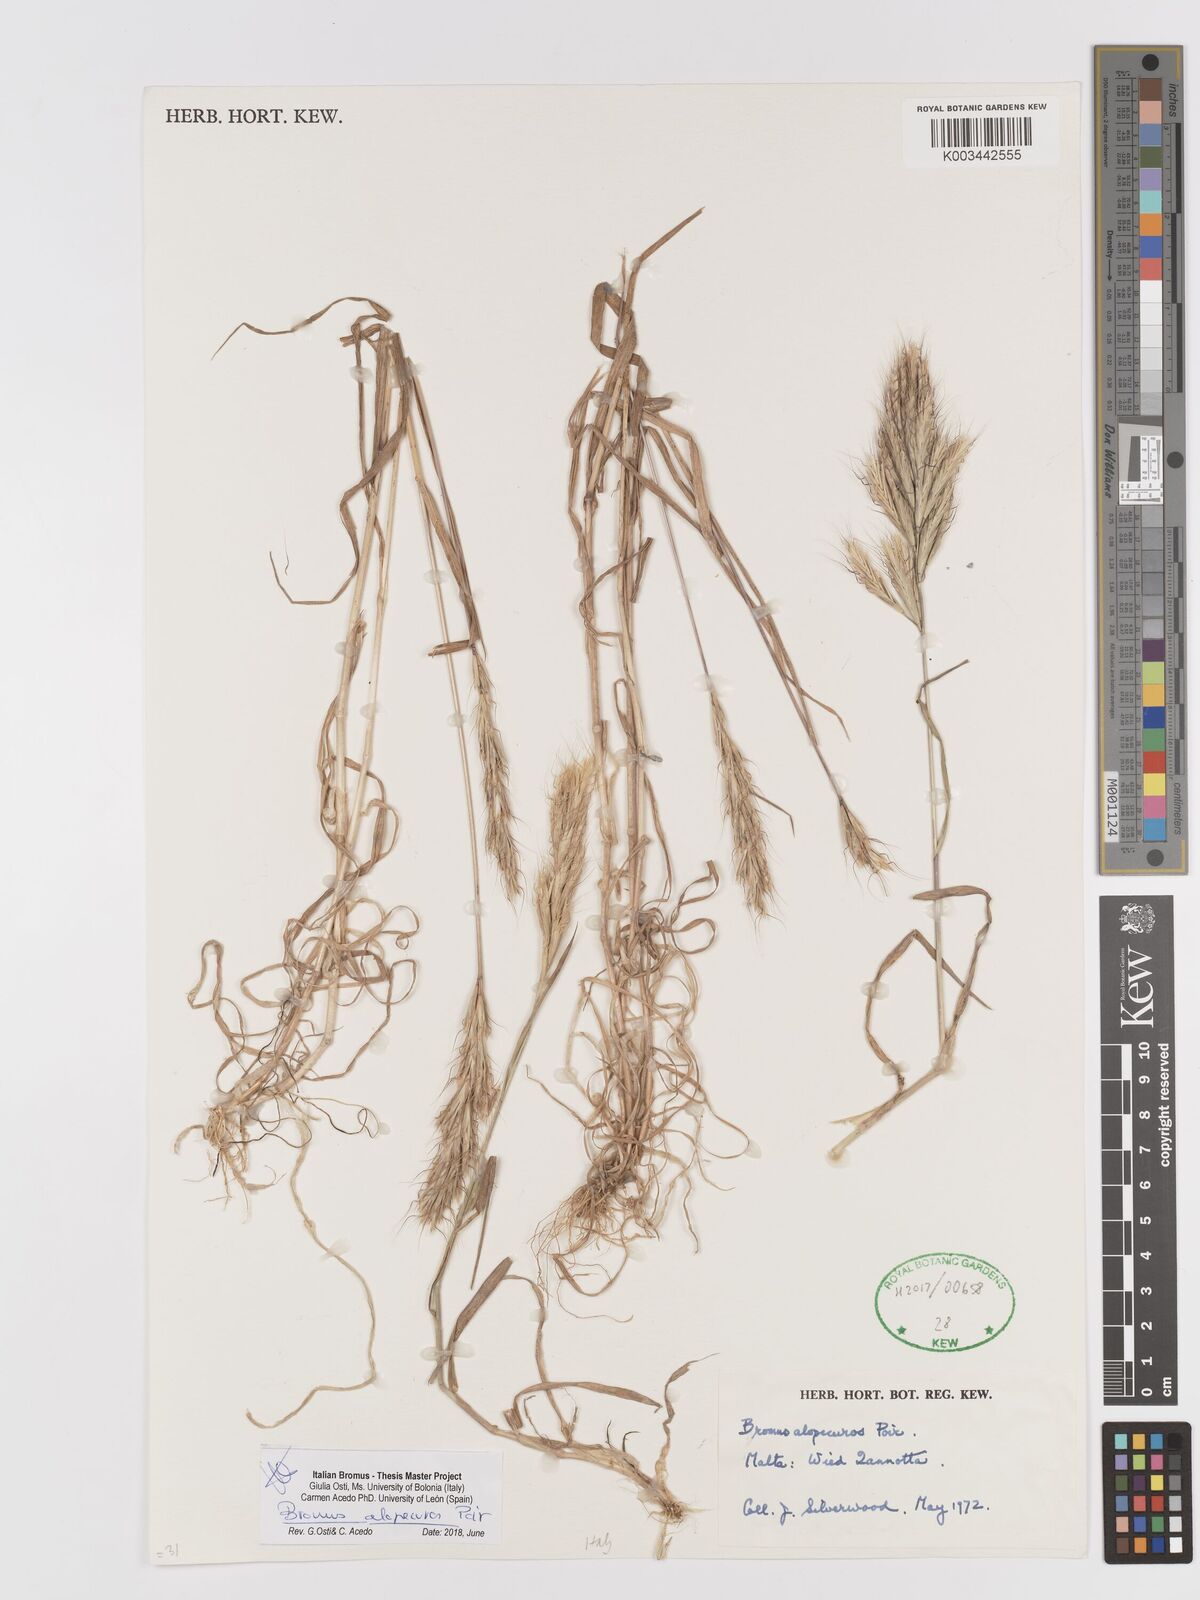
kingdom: Plantae
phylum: Tracheophyta
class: Liliopsida
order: Poales
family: Poaceae
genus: Bromus
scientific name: Bromus alopecuros
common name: Weedy brome
